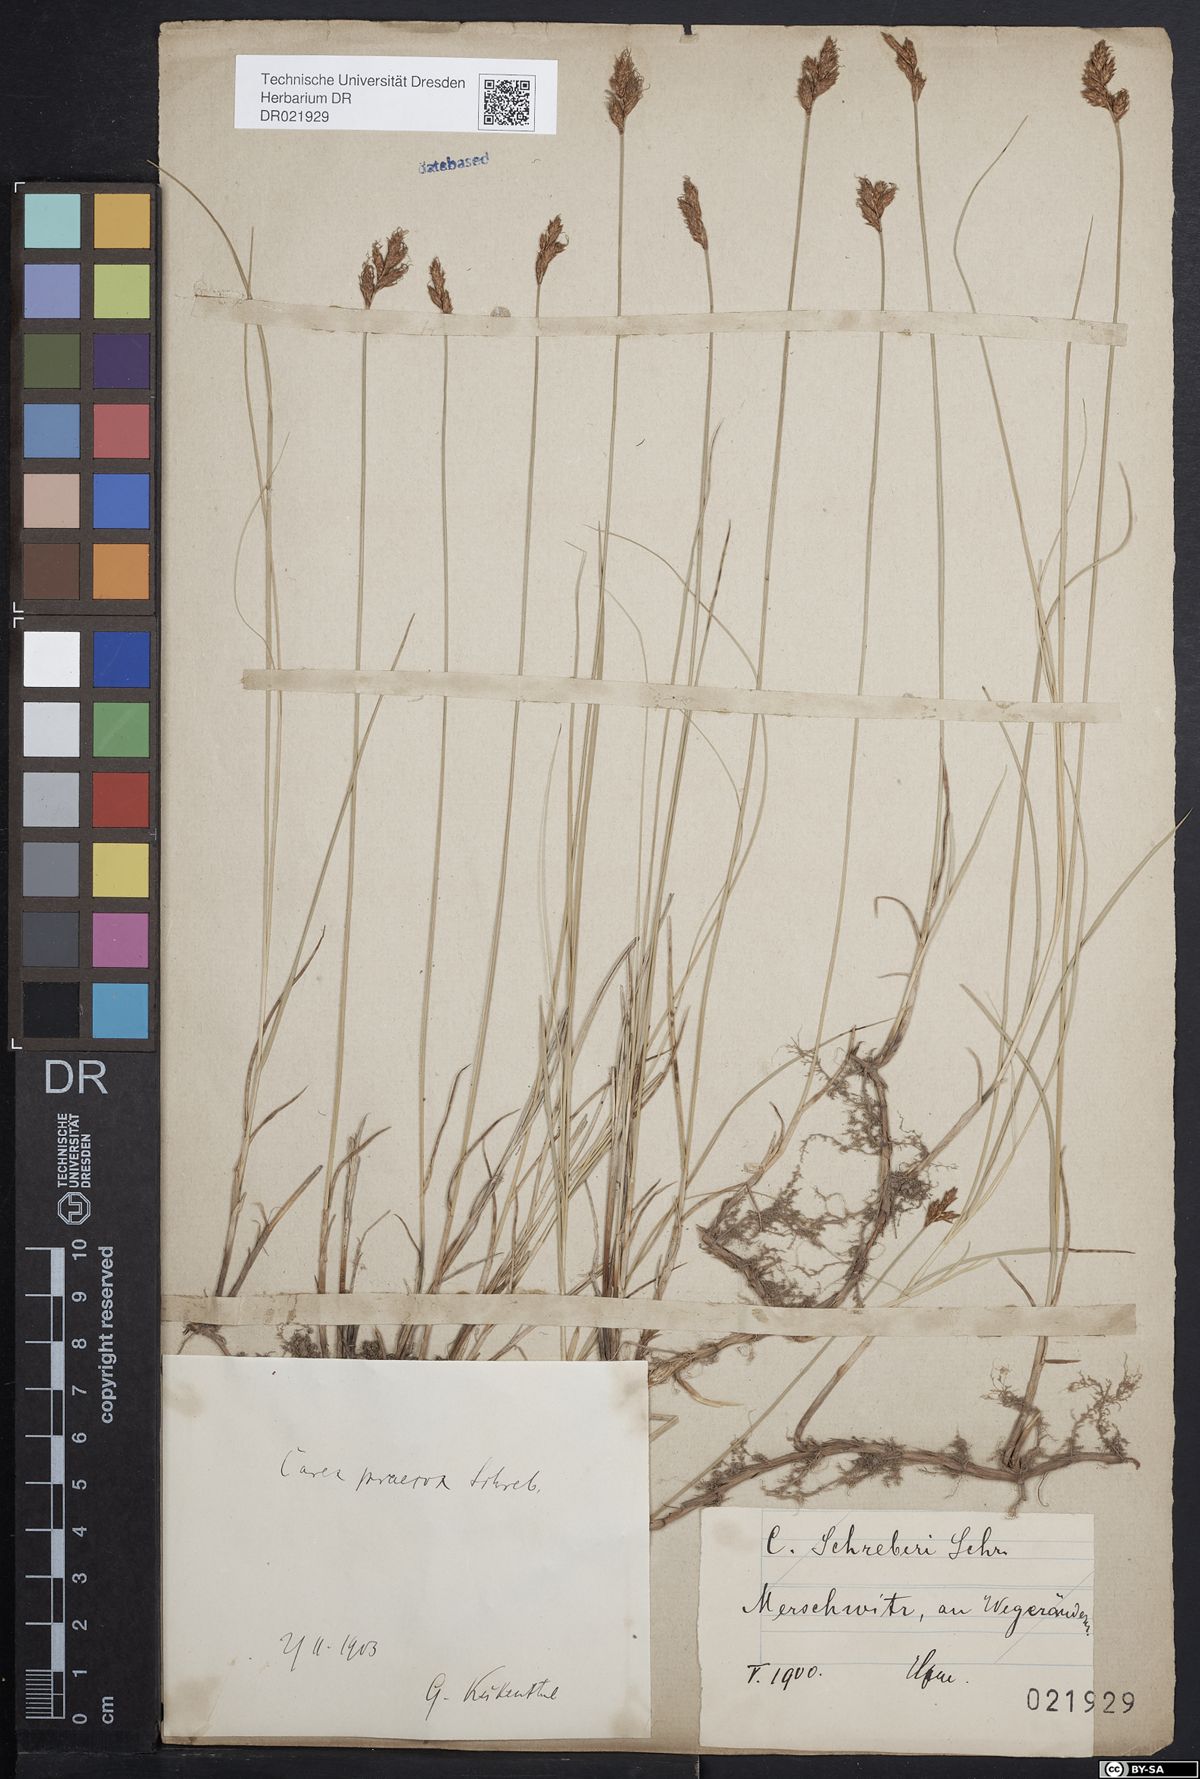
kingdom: Plantae
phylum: Tracheophyta
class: Liliopsida
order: Poales
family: Cyperaceae
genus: Carex
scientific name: Carex praecox
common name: Early sedge
